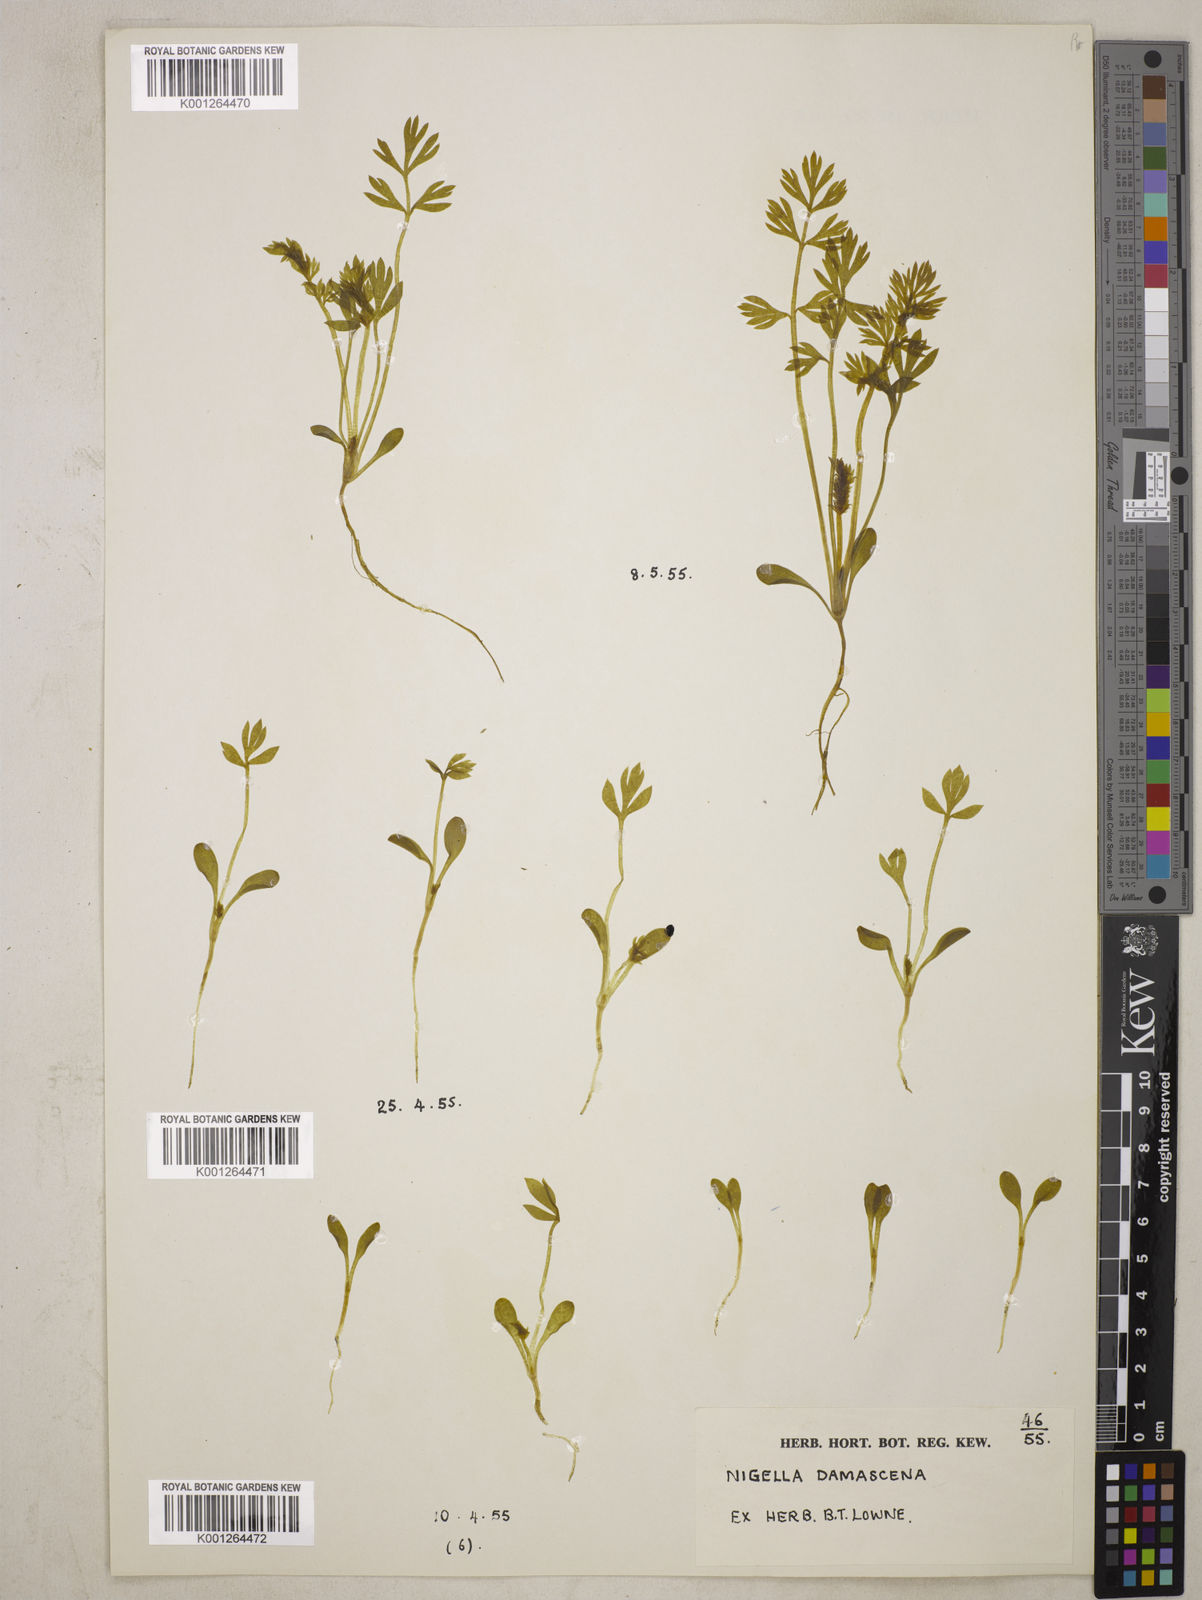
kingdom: Plantae
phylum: Tracheophyta
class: Magnoliopsida
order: Ranunculales
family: Ranunculaceae
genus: Nigella
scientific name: Nigella damascena
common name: Love-in-a-mist
